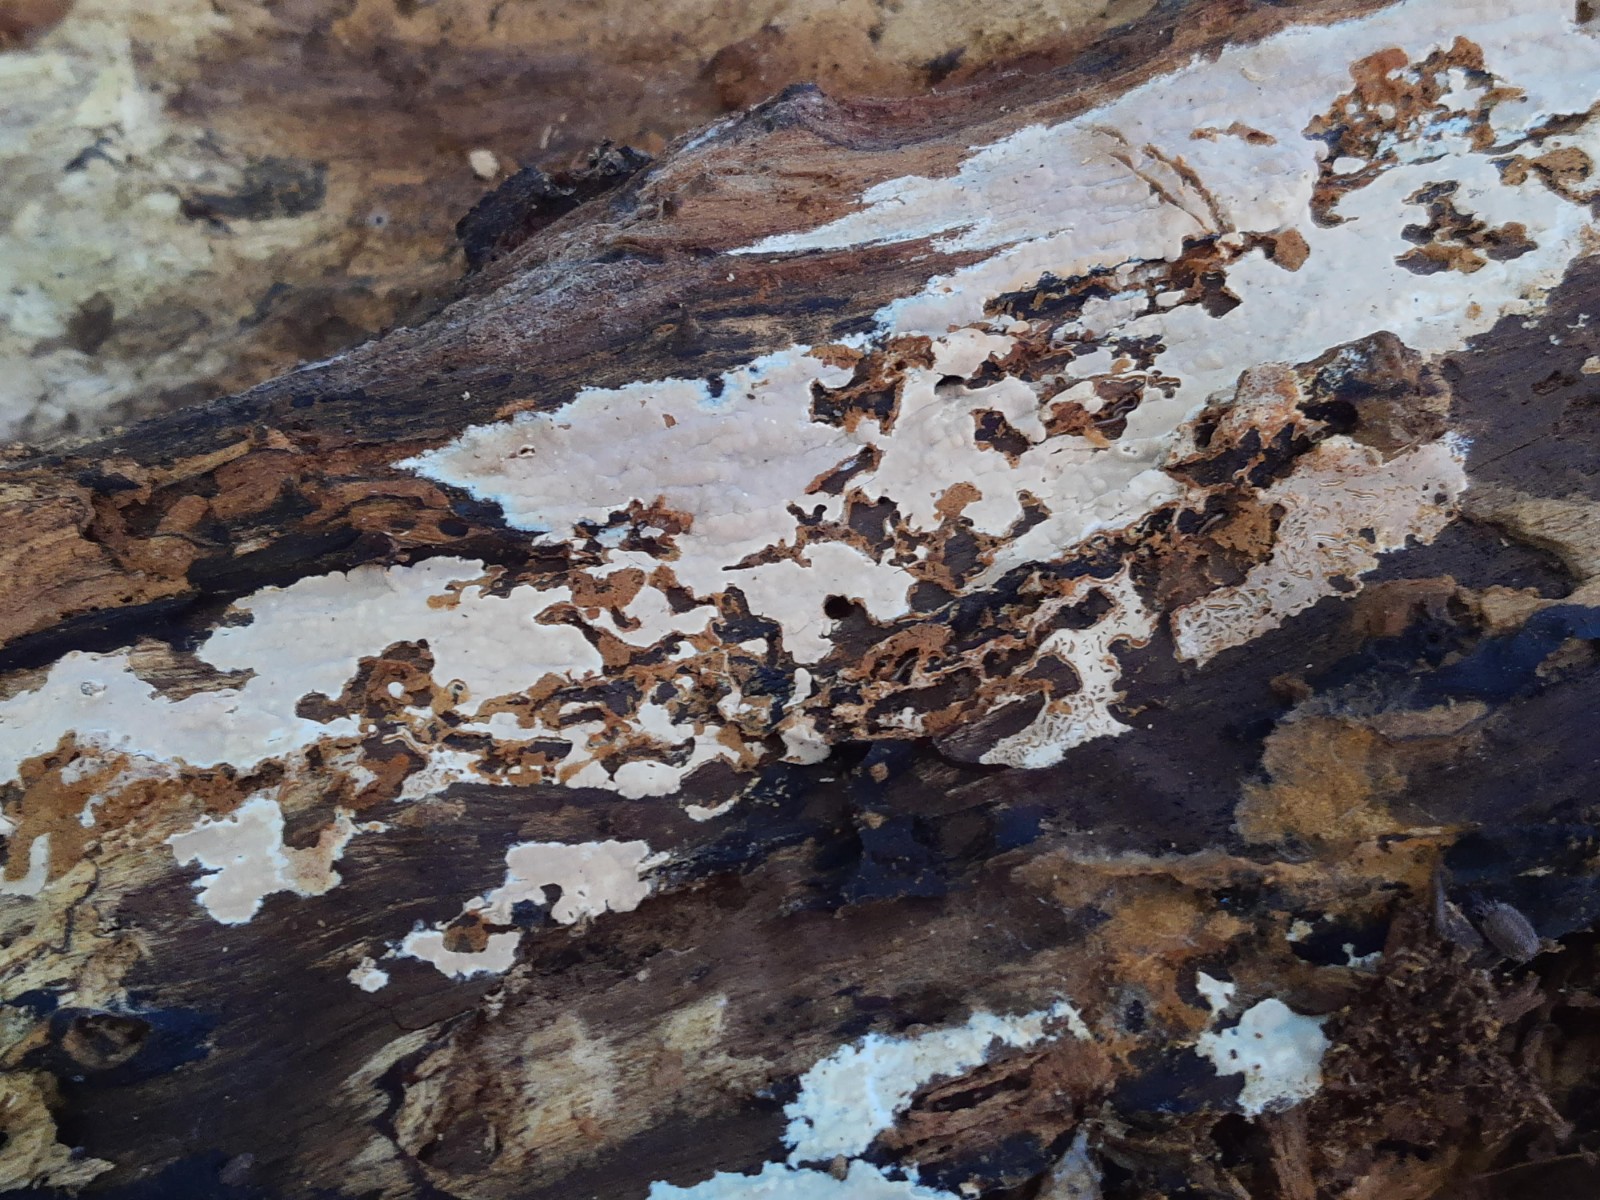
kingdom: Fungi
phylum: Basidiomycota
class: Agaricomycetes
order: Russulales
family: Peniophoraceae
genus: Gloiothele
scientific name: Gloiothele lactescens
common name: bitter olieskind
